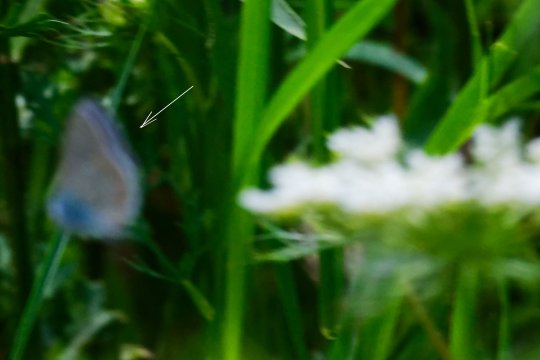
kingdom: Animalia
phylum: Arthropoda
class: Insecta
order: Lepidoptera
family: Lycaenidae
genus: Polyommatus
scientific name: Polyommatus icarus
